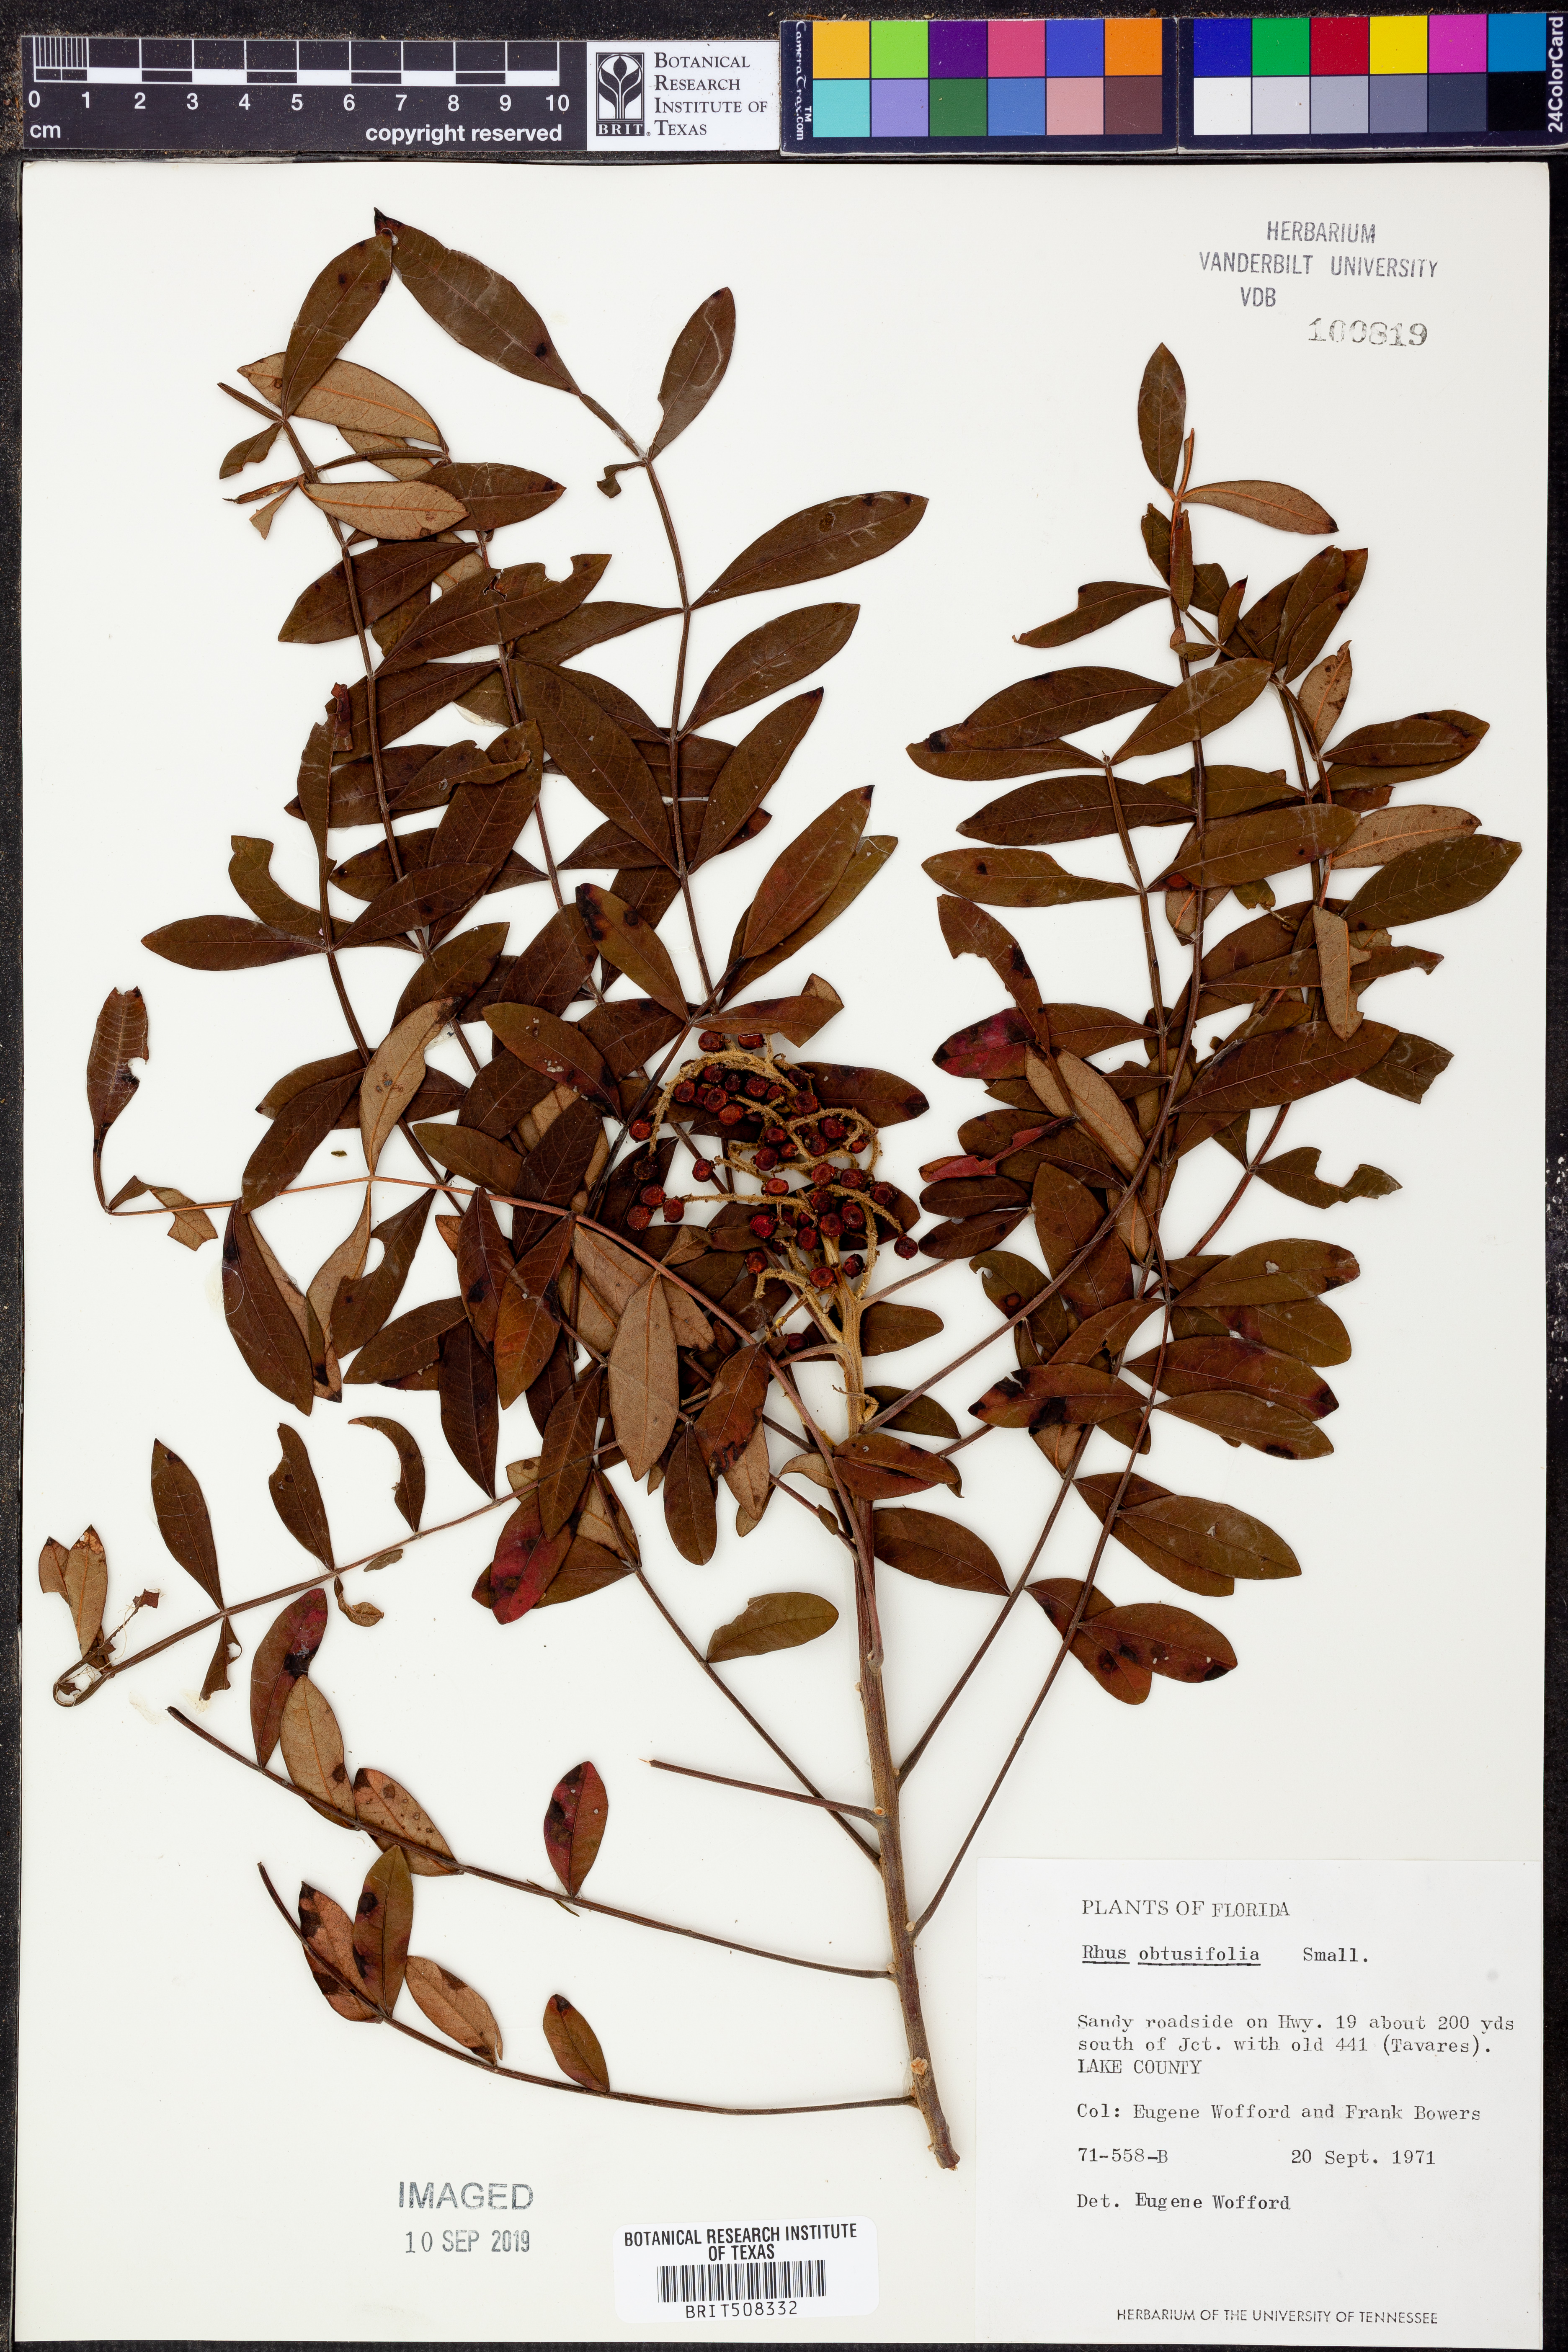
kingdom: Plantae
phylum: Tracheophyta
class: Magnoliopsida
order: Sapindales
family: Anacardiaceae
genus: Rhus
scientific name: Rhus copallina
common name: Shining sumac
